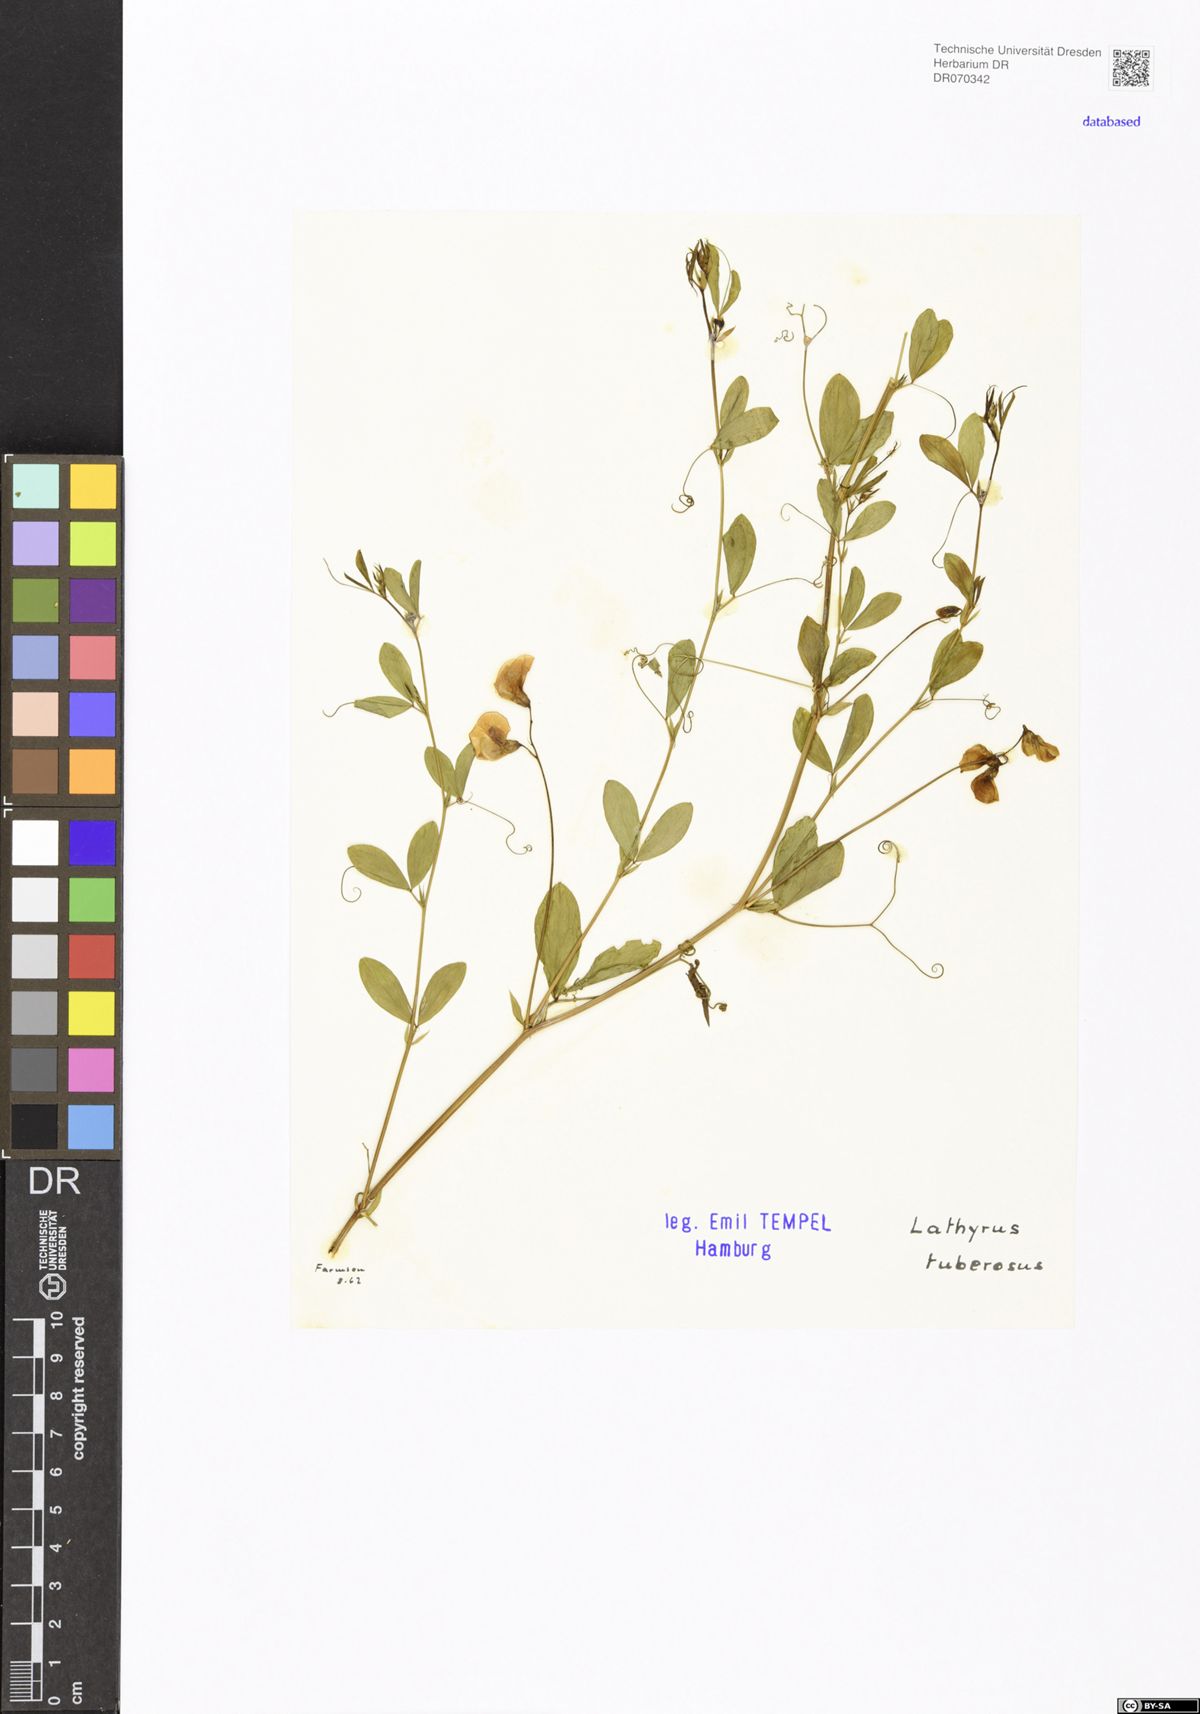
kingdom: Plantae
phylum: Tracheophyta
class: Magnoliopsida
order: Fabales
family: Fabaceae
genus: Lathyrus
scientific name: Lathyrus tuberosus
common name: Tuberous pea
